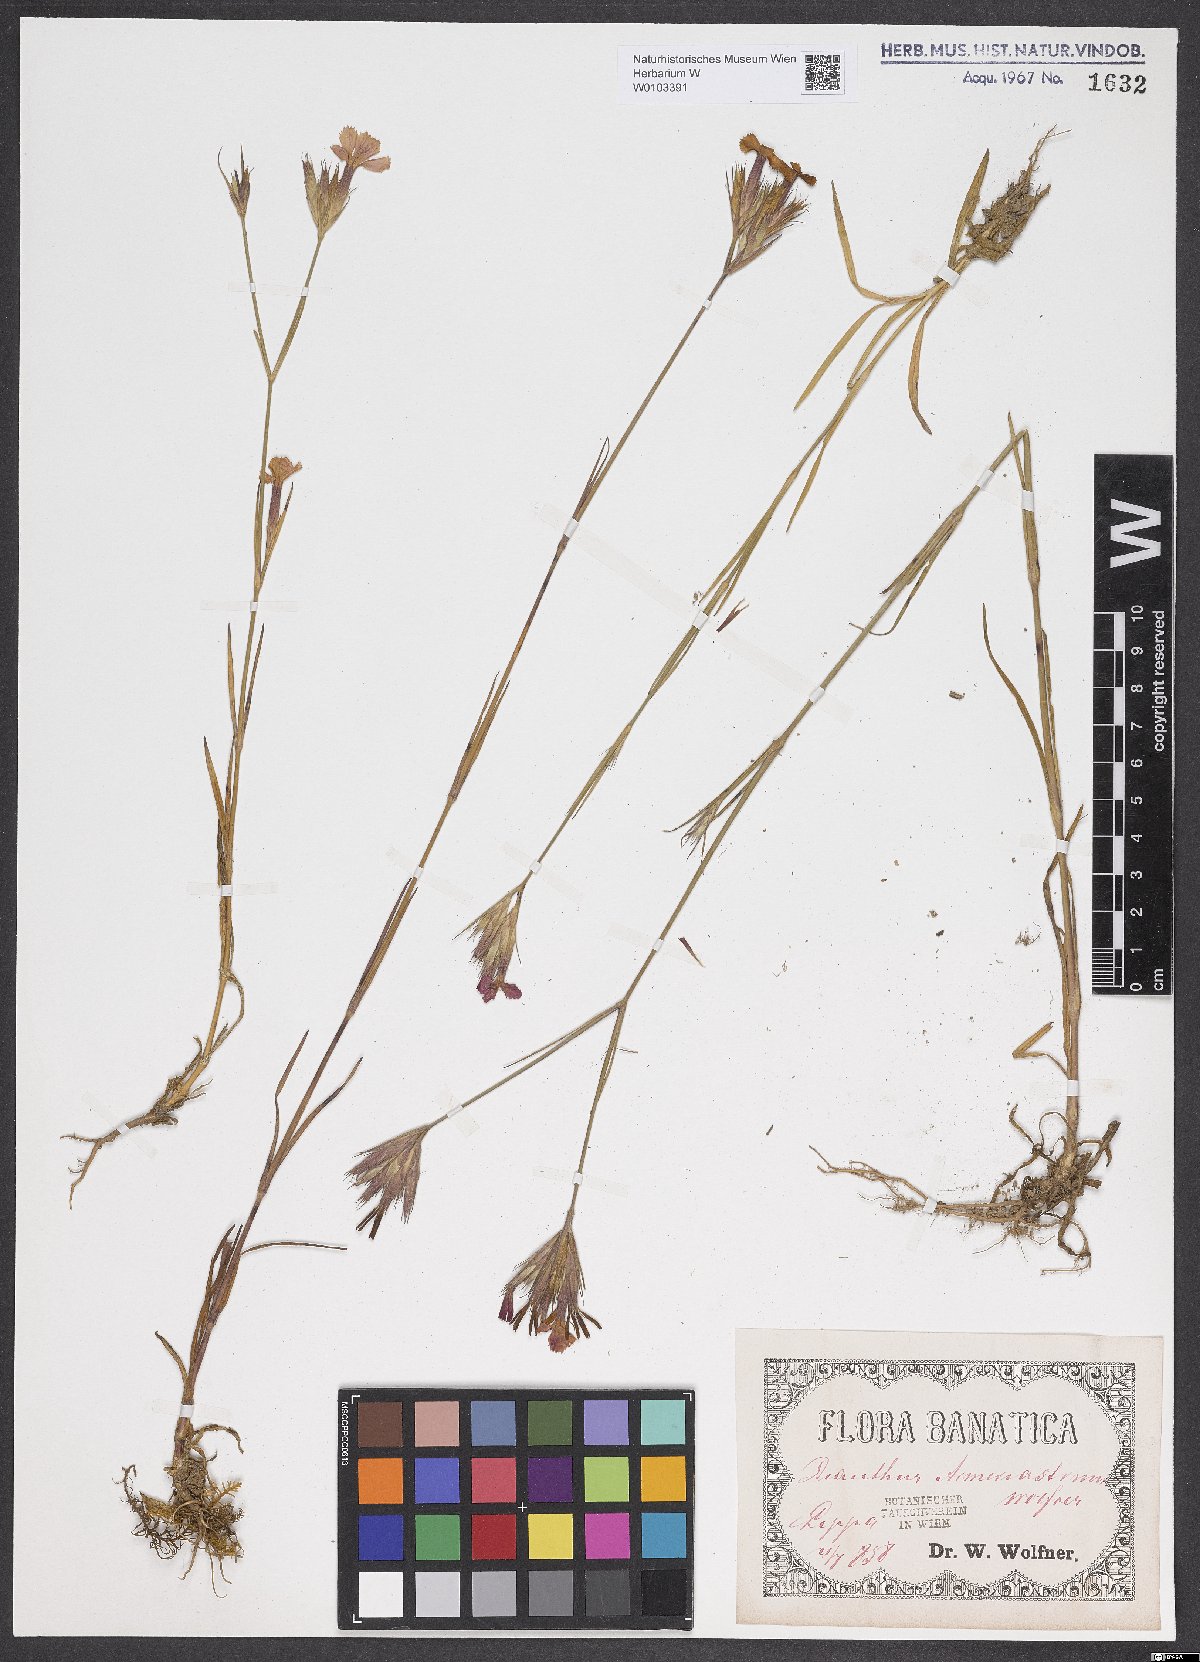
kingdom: Plantae
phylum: Tracheophyta
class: Magnoliopsida
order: Caryophyllales
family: Caryophyllaceae
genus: Dianthus
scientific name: Dianthus corymbosus
